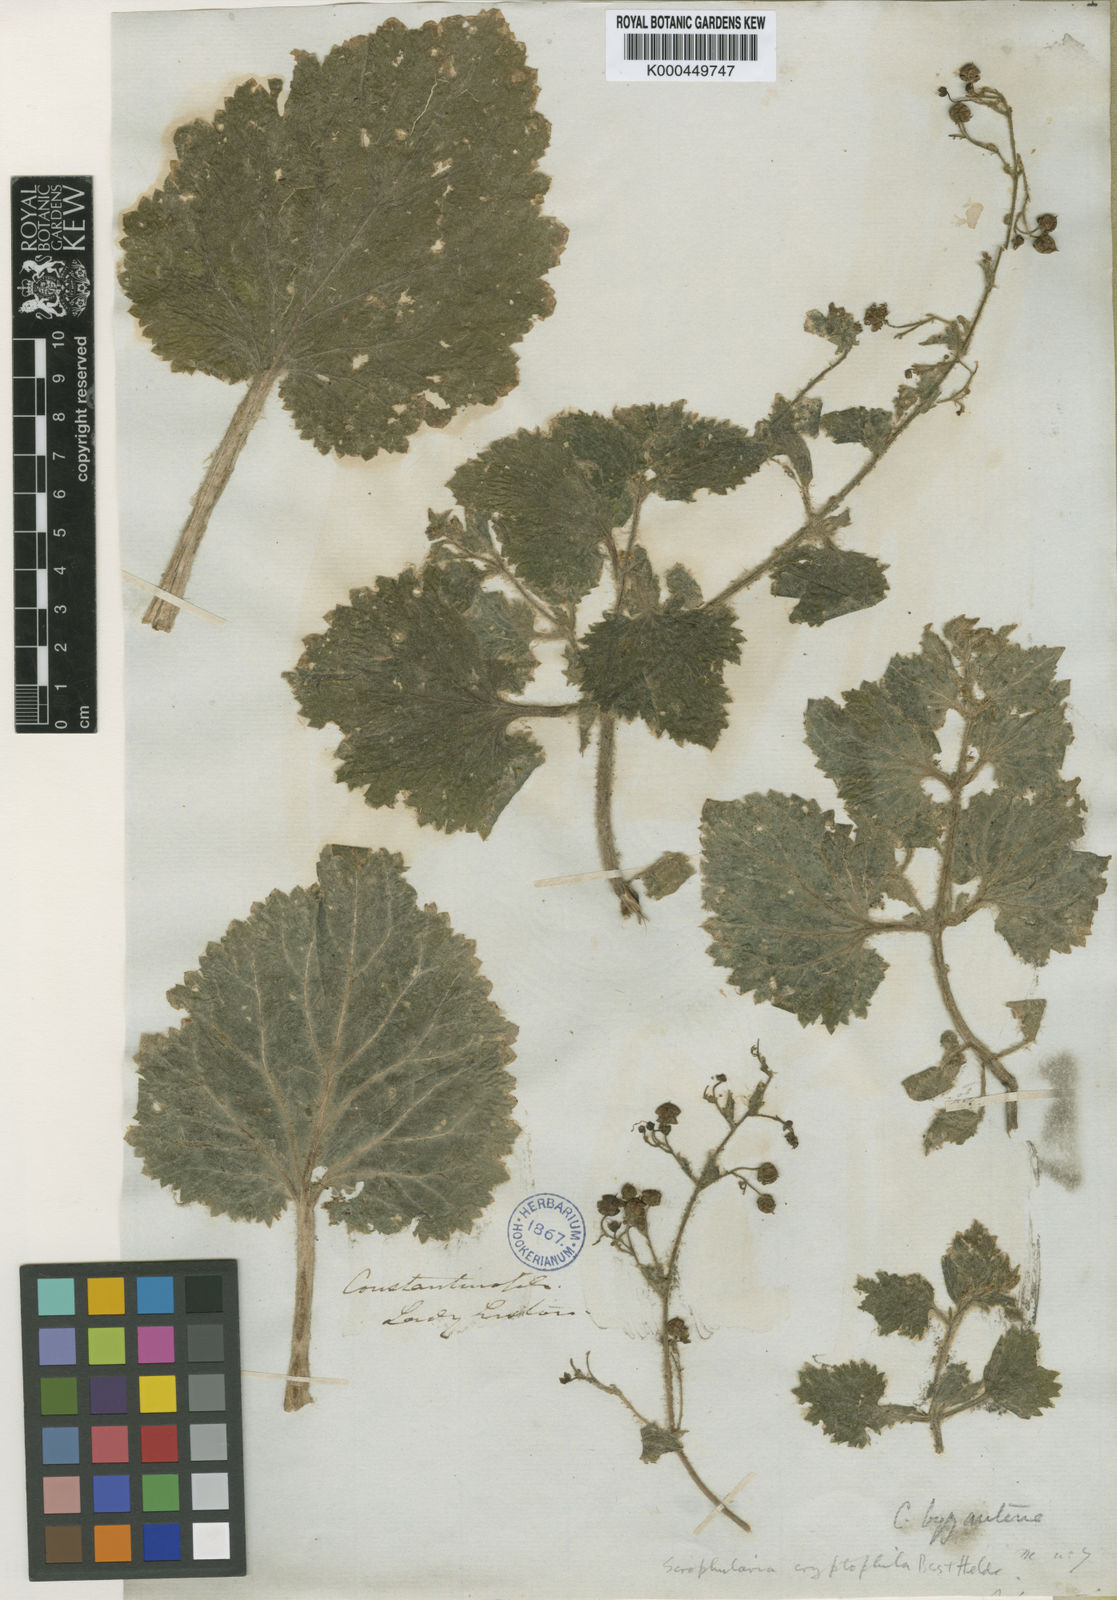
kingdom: Plantae
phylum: Tracheophyta
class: Magnoliopsida
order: Lamiales
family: Scrophulariaceae
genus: Scrophularia
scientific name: Scrophularia cryptophila
